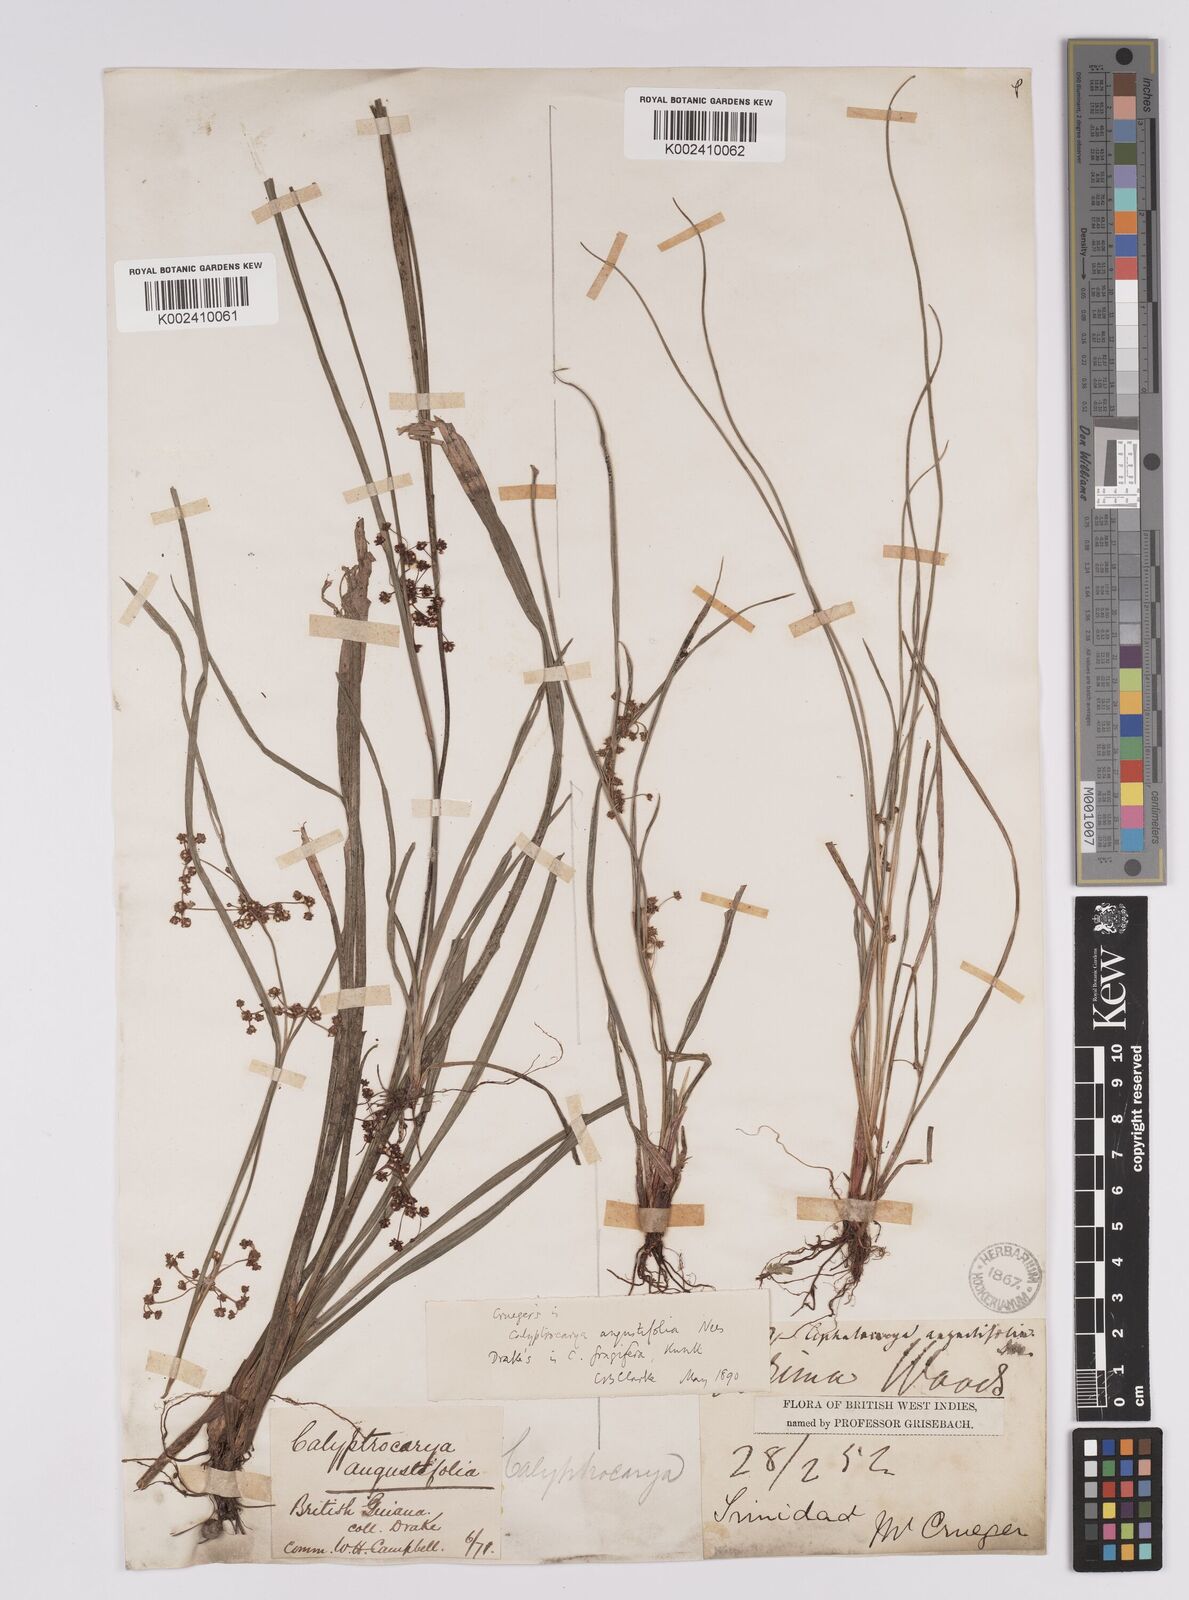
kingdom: Plantae
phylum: Tracheophyta
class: Liliopsida
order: Poales
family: Cyperaceae
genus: Calyptrocarya
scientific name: Calyptrocarya glomerulata
